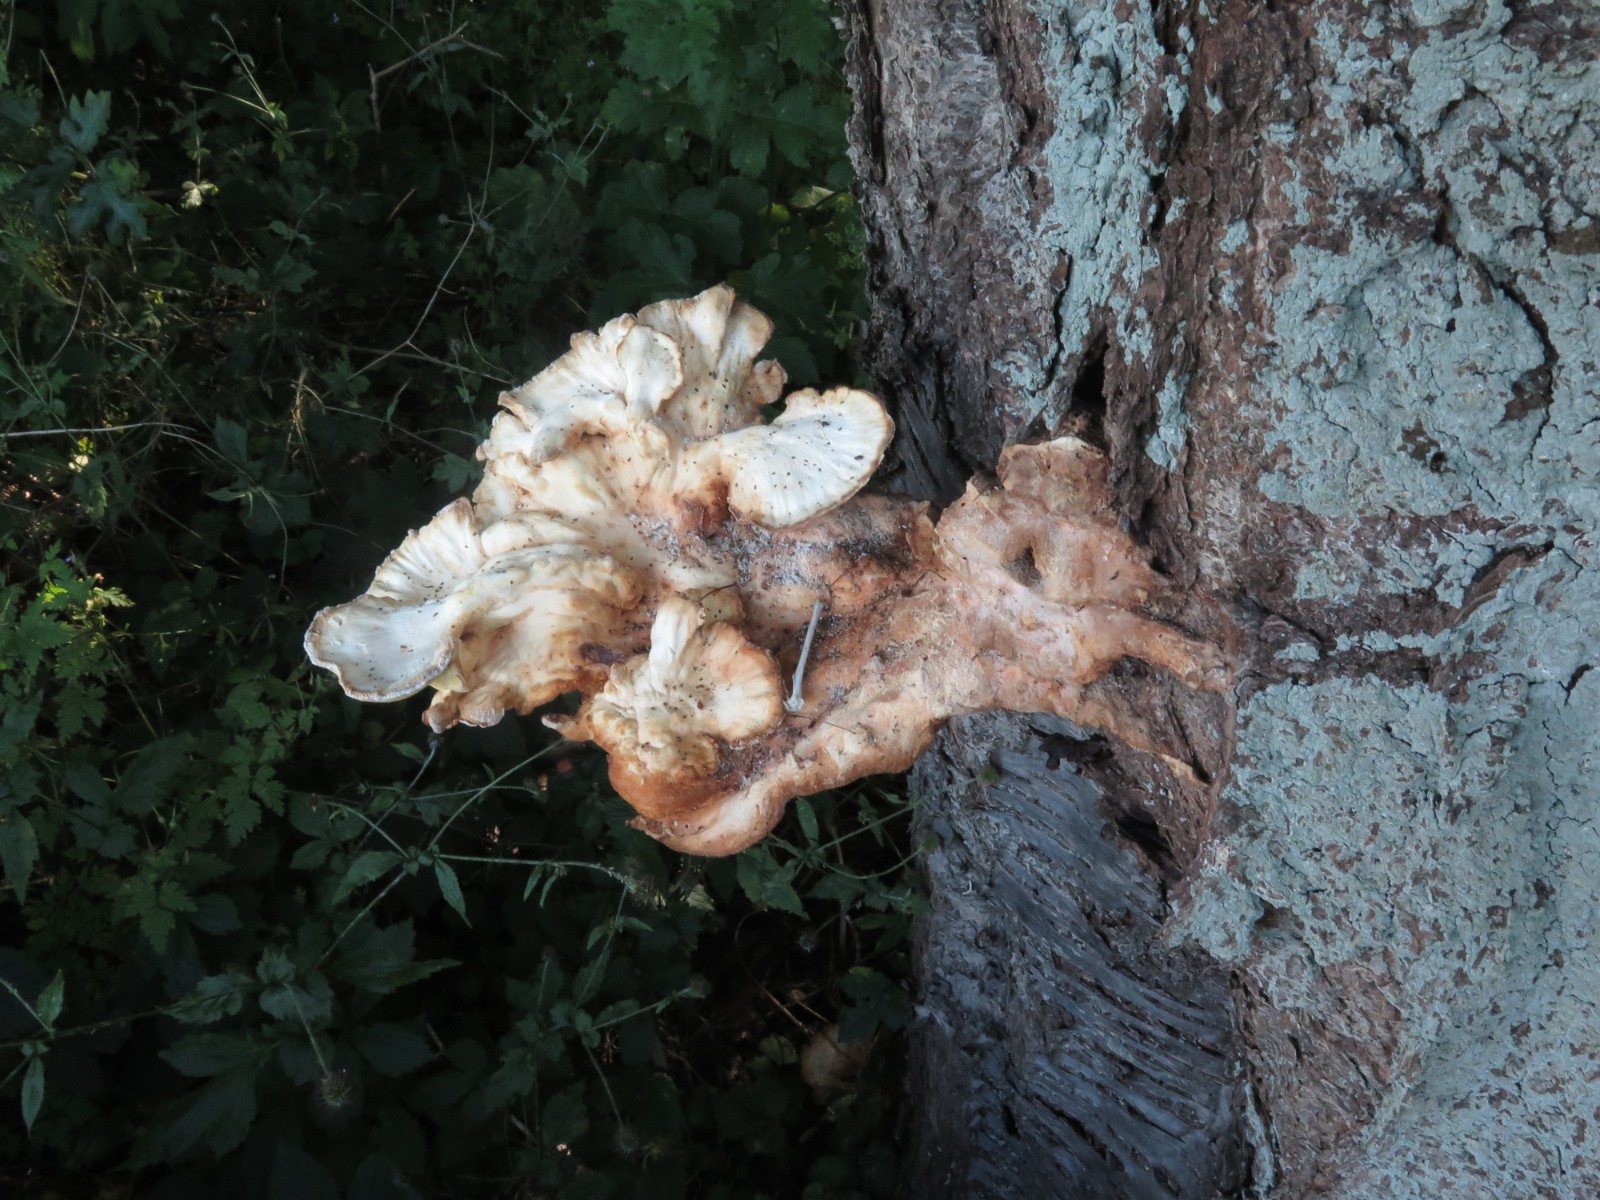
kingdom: Fungi
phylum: Basidiomycota
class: Agaricomycetes
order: Polyporales
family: Laetiporaceae
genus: Laetiporus
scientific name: Laetiporus sulphureus
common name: svovlporesvamp
